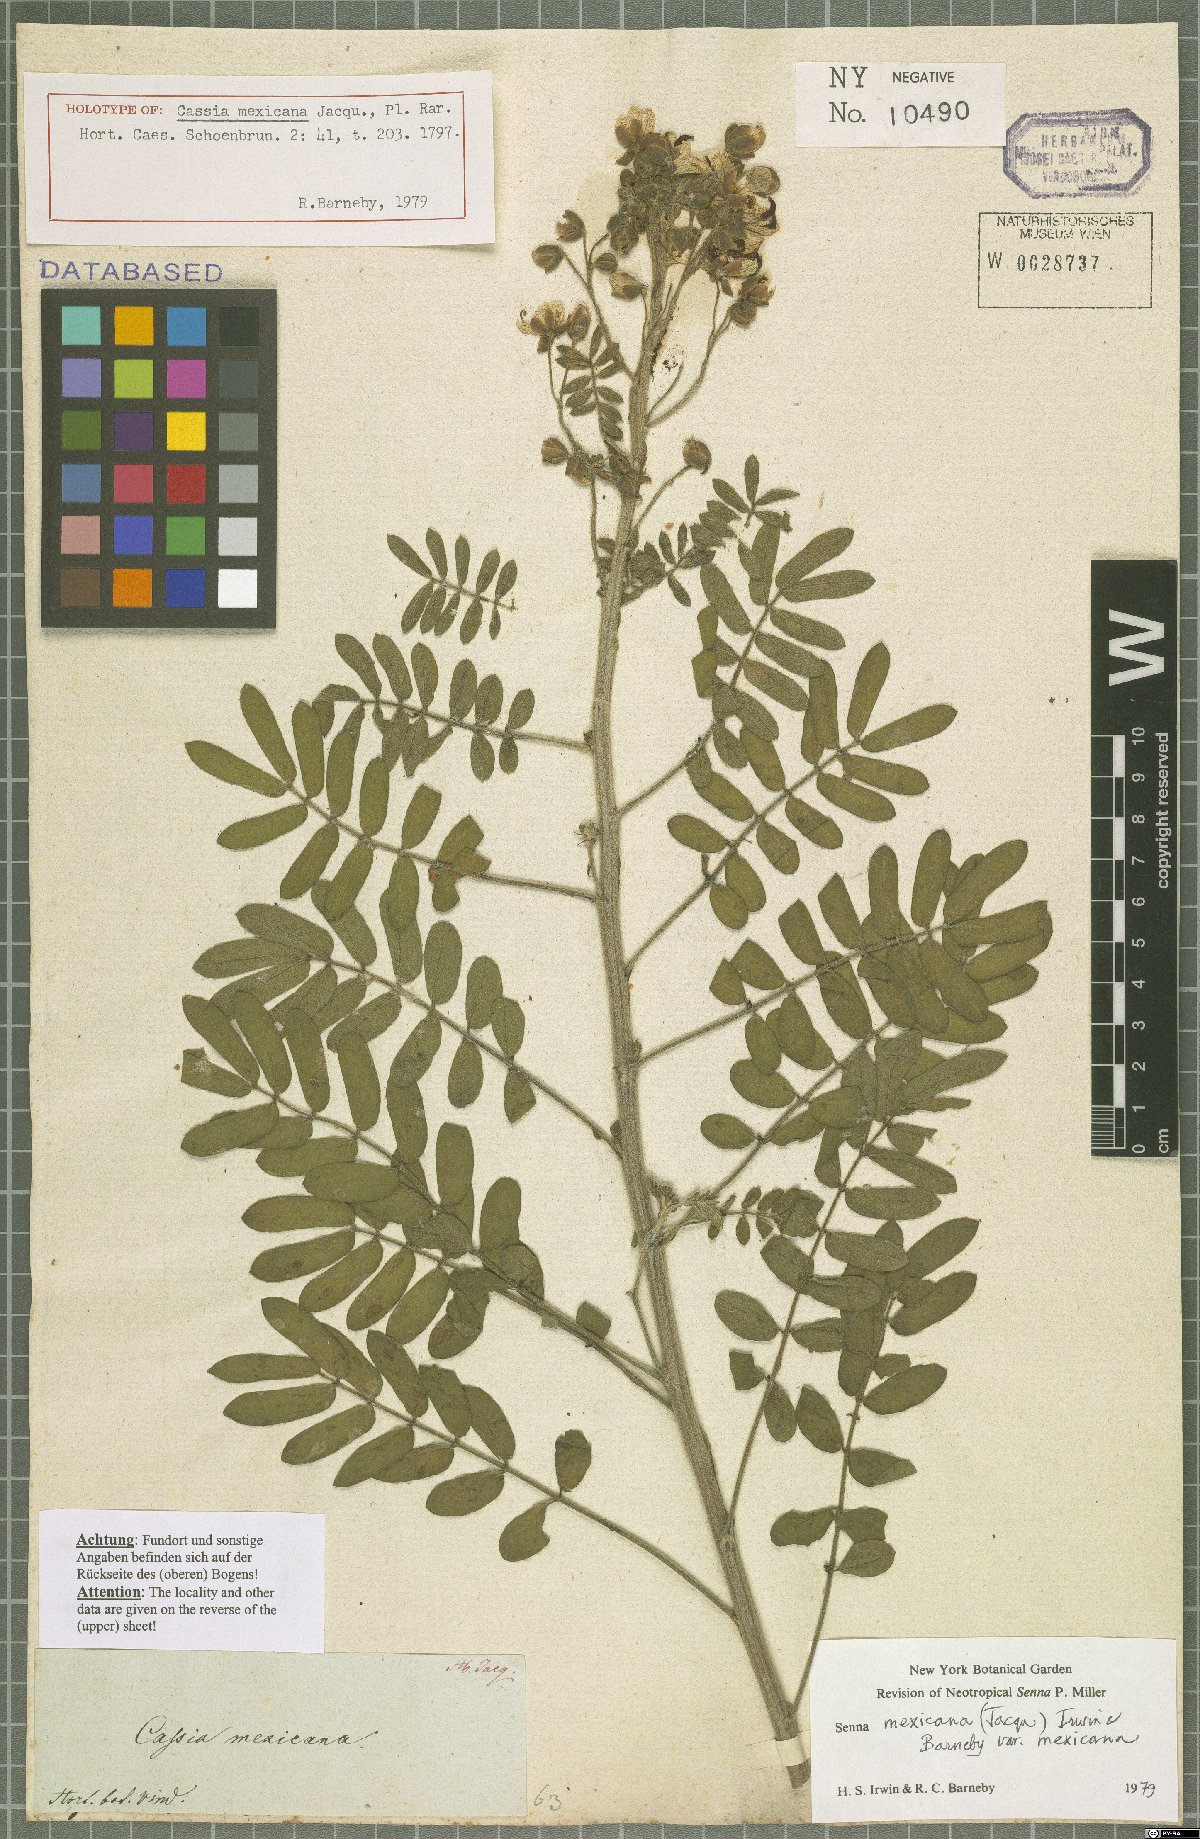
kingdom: Plantae
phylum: Tracheophyta
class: Magnoliopsida
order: Fabales
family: Fabaceae
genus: Senna
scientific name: Senna mexicana
